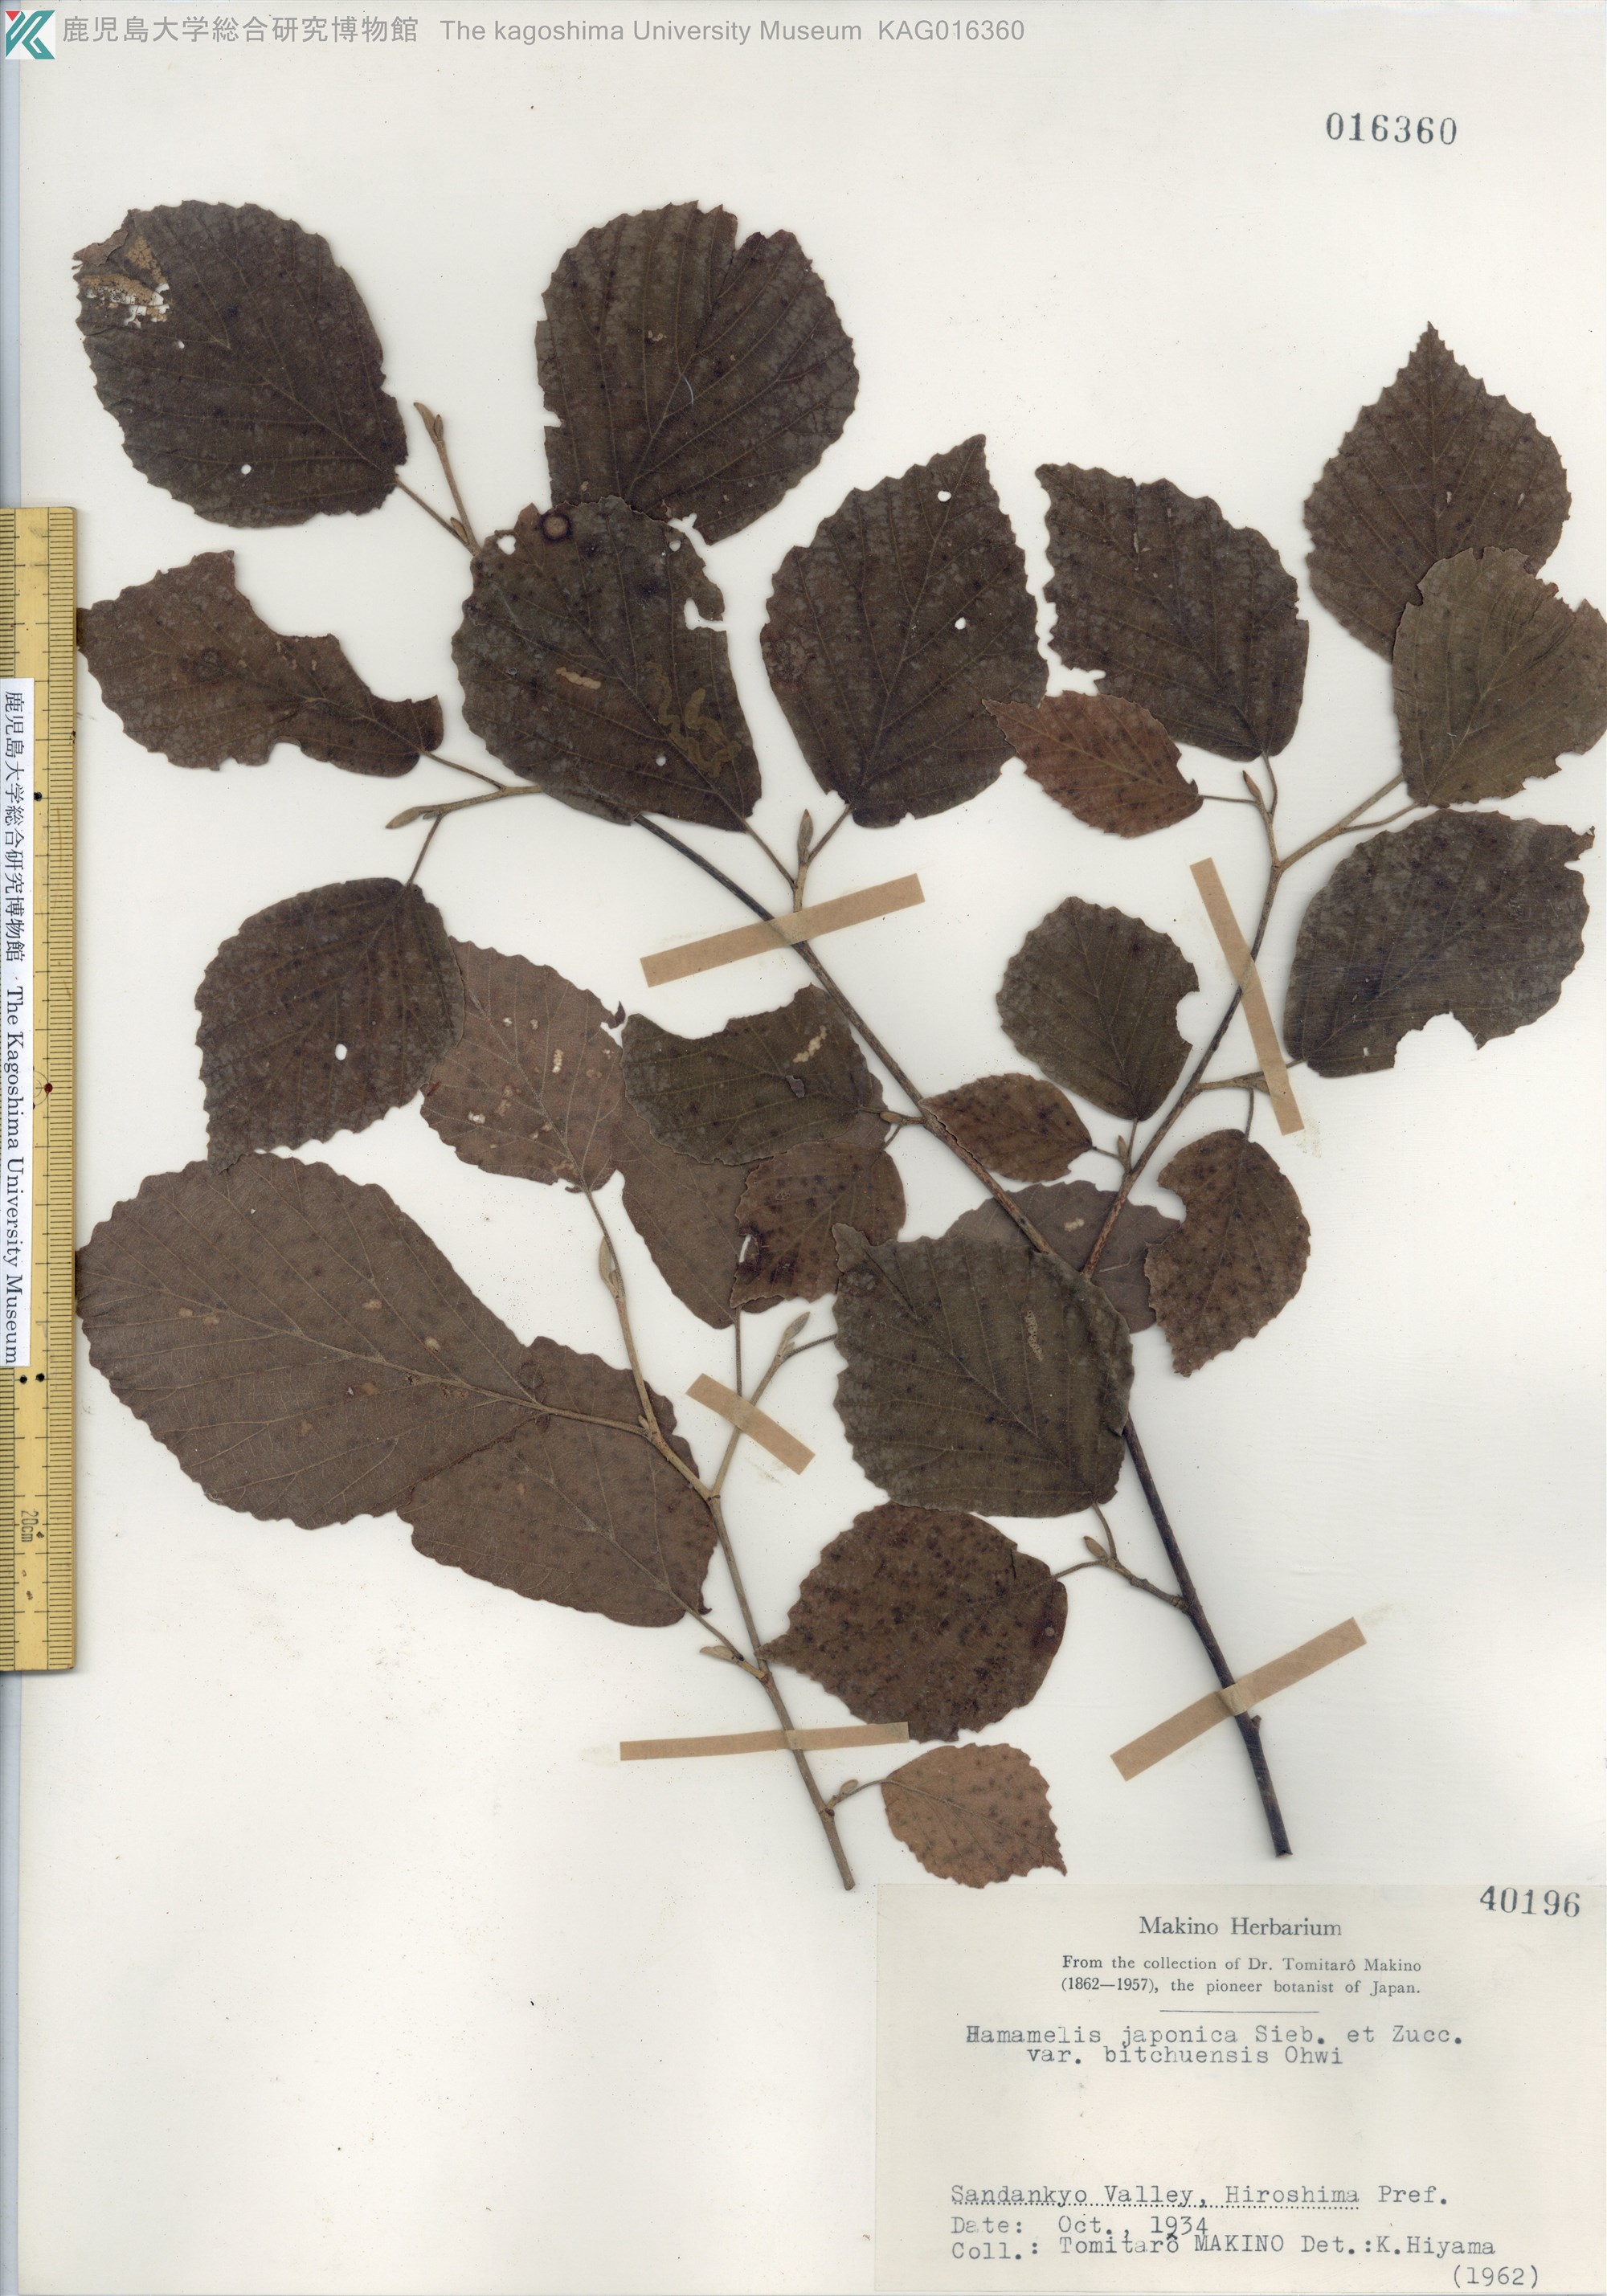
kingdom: Plantae
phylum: Tracheophyta
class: Magnoliopsida
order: Saxifragales
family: Hamamelidaceae
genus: Hamamelis
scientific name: Hamamelis japonica
